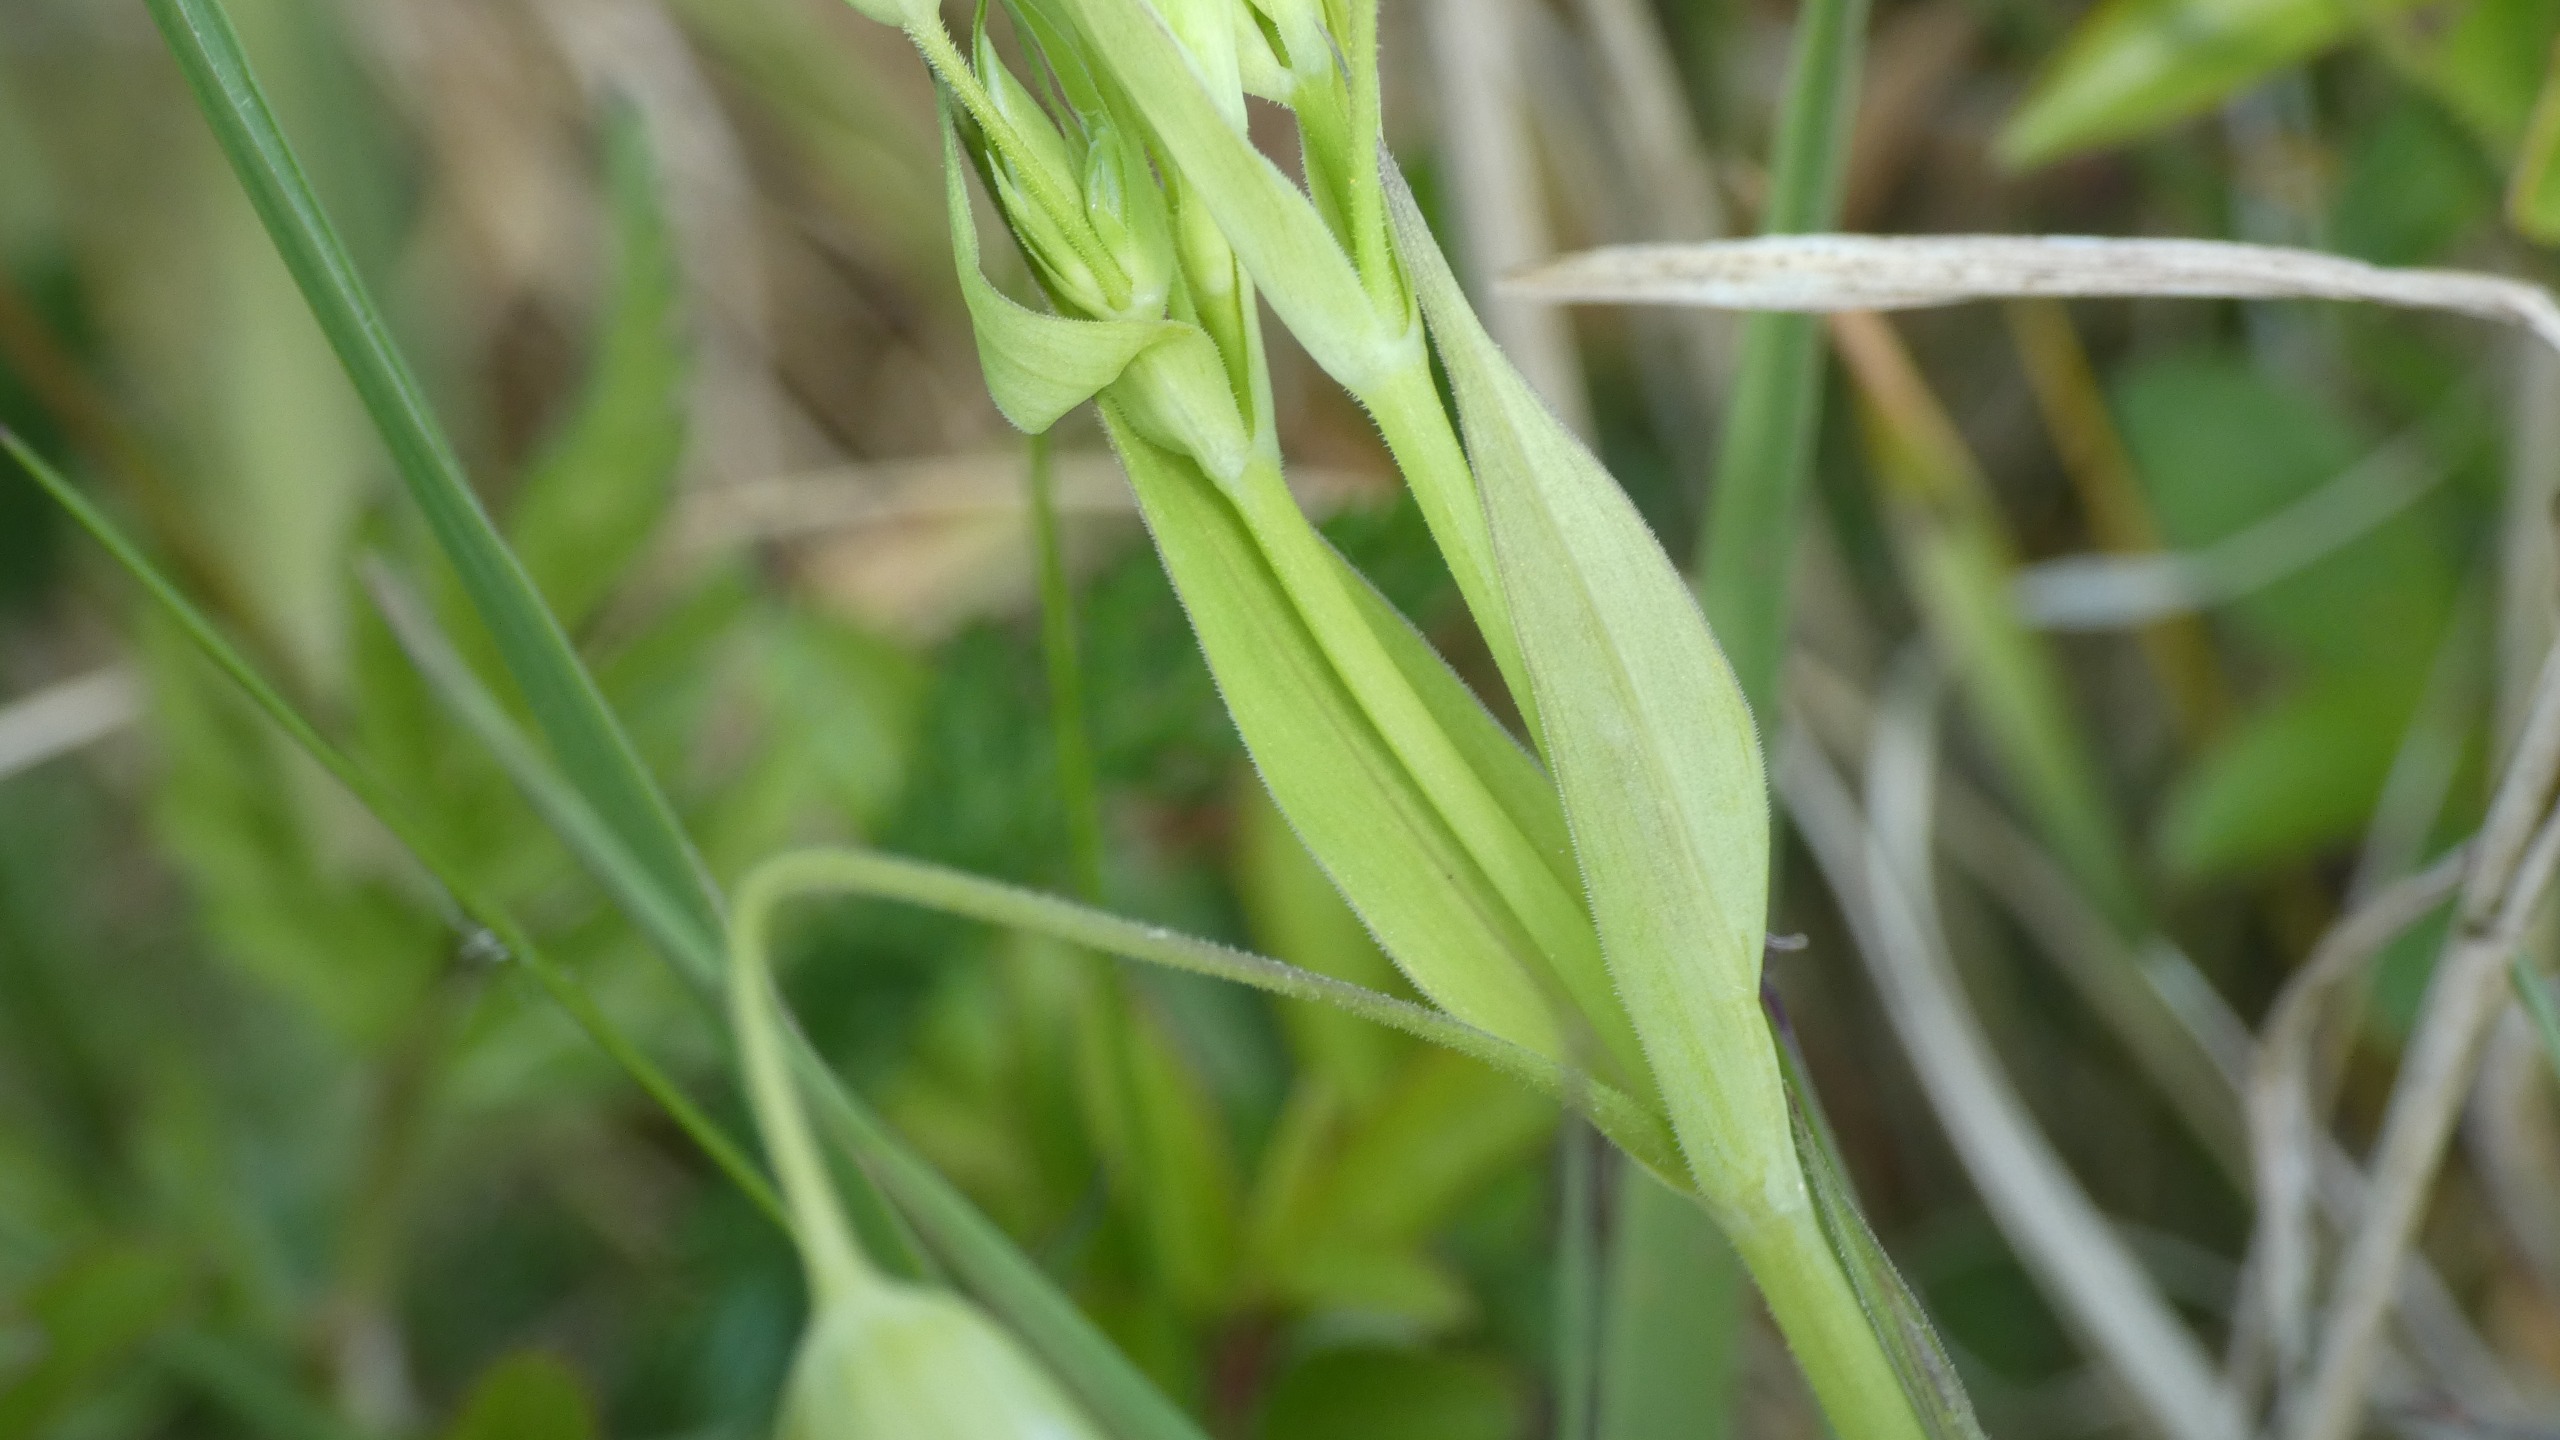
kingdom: Plantae
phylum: Tracheophyta
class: Magnoliopsida
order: Caryophyllales
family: Caryophyllaceae
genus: Rabelera
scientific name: Rabelera holostea
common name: Stor fladstjerne
